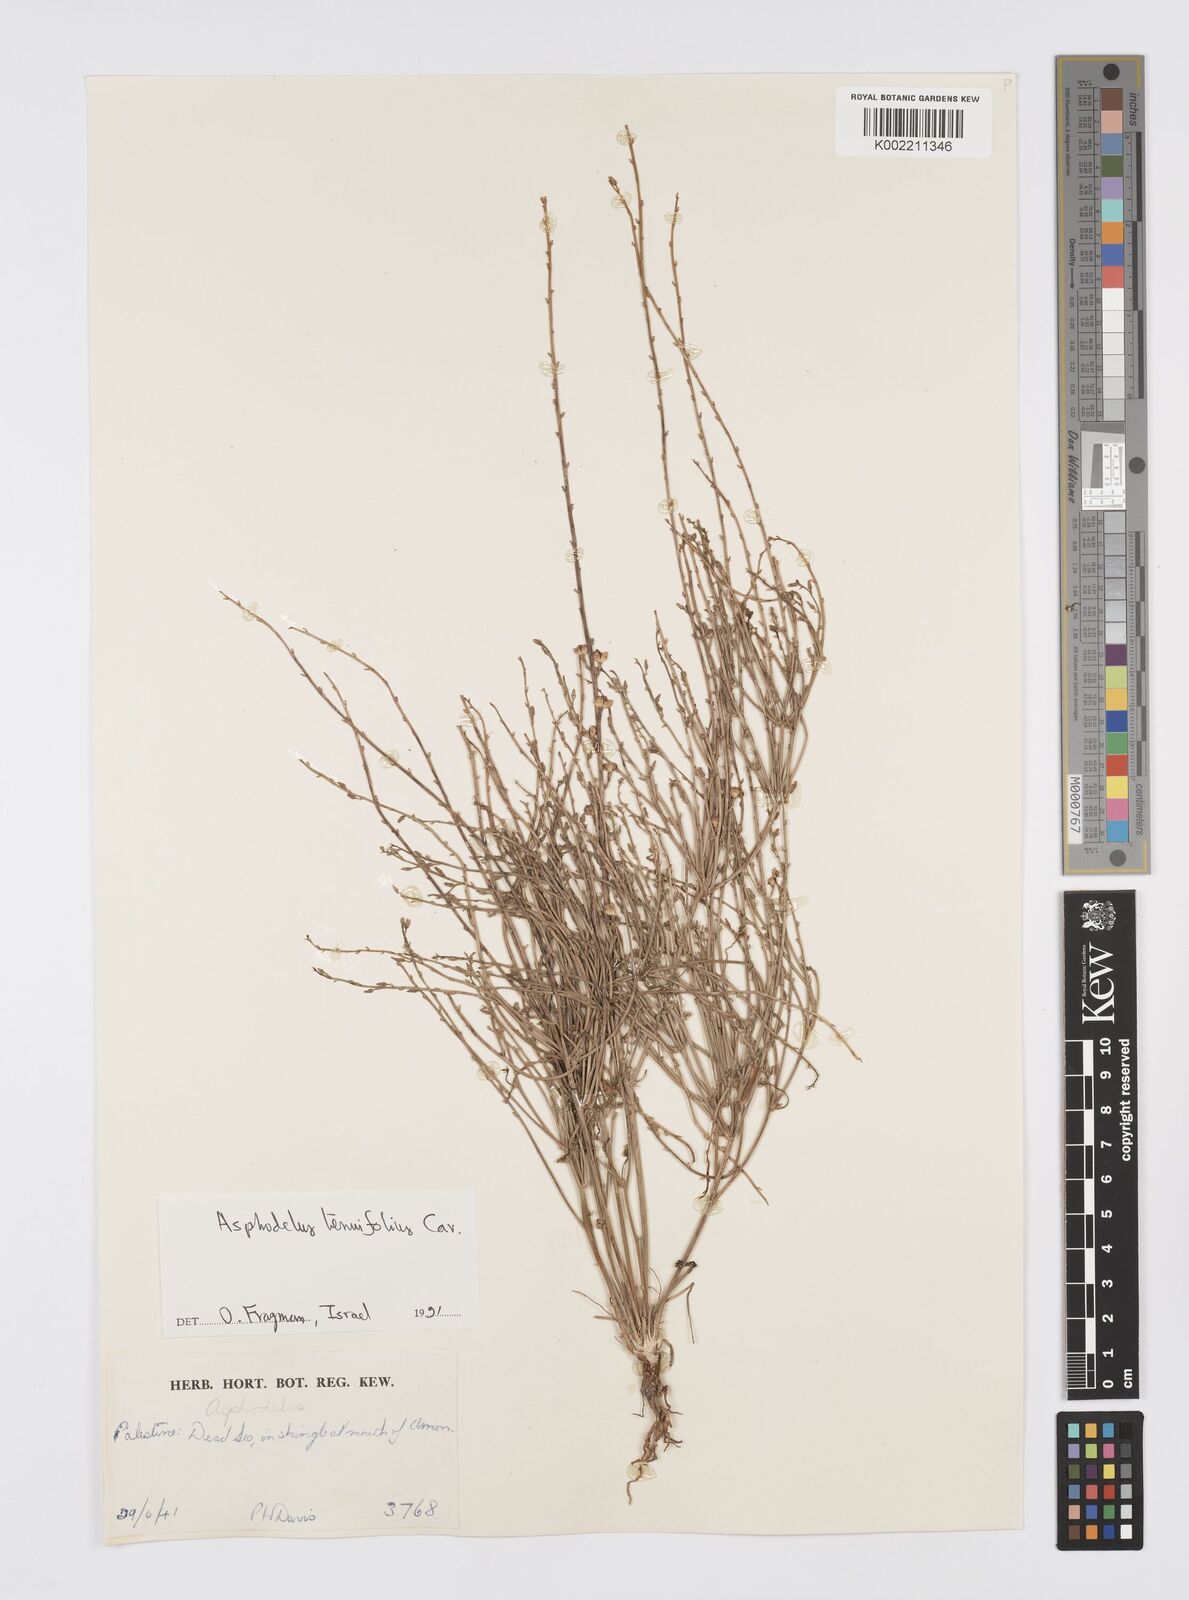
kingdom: Plantae
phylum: Tracheophyta
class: Liliopsida
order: Asparagales
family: Asphodelaceae
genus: Asphodelus
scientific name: Asphodelus tenuifolius
